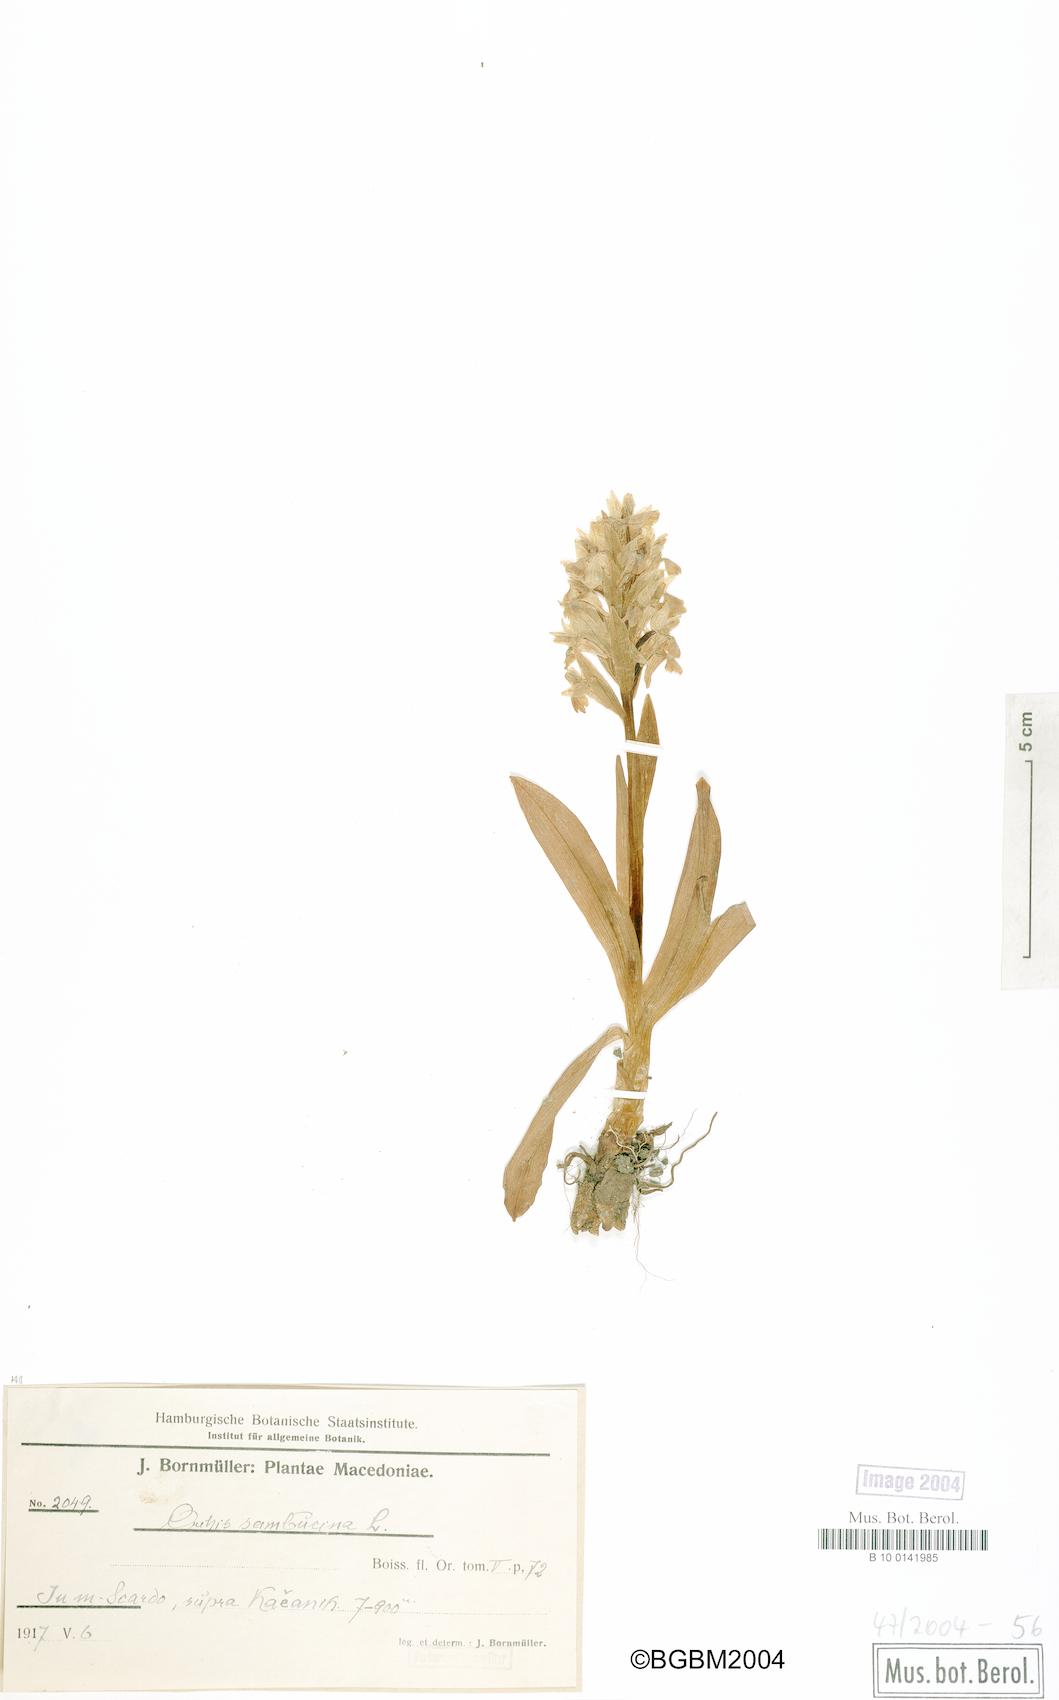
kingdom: Plantae
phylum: Tracheophyta
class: Liliopsida
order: Asparagales
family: Orchidaceae
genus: Dactylorhiza
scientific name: Dactylorhiza sambucina
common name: Elder-flowered orchid
